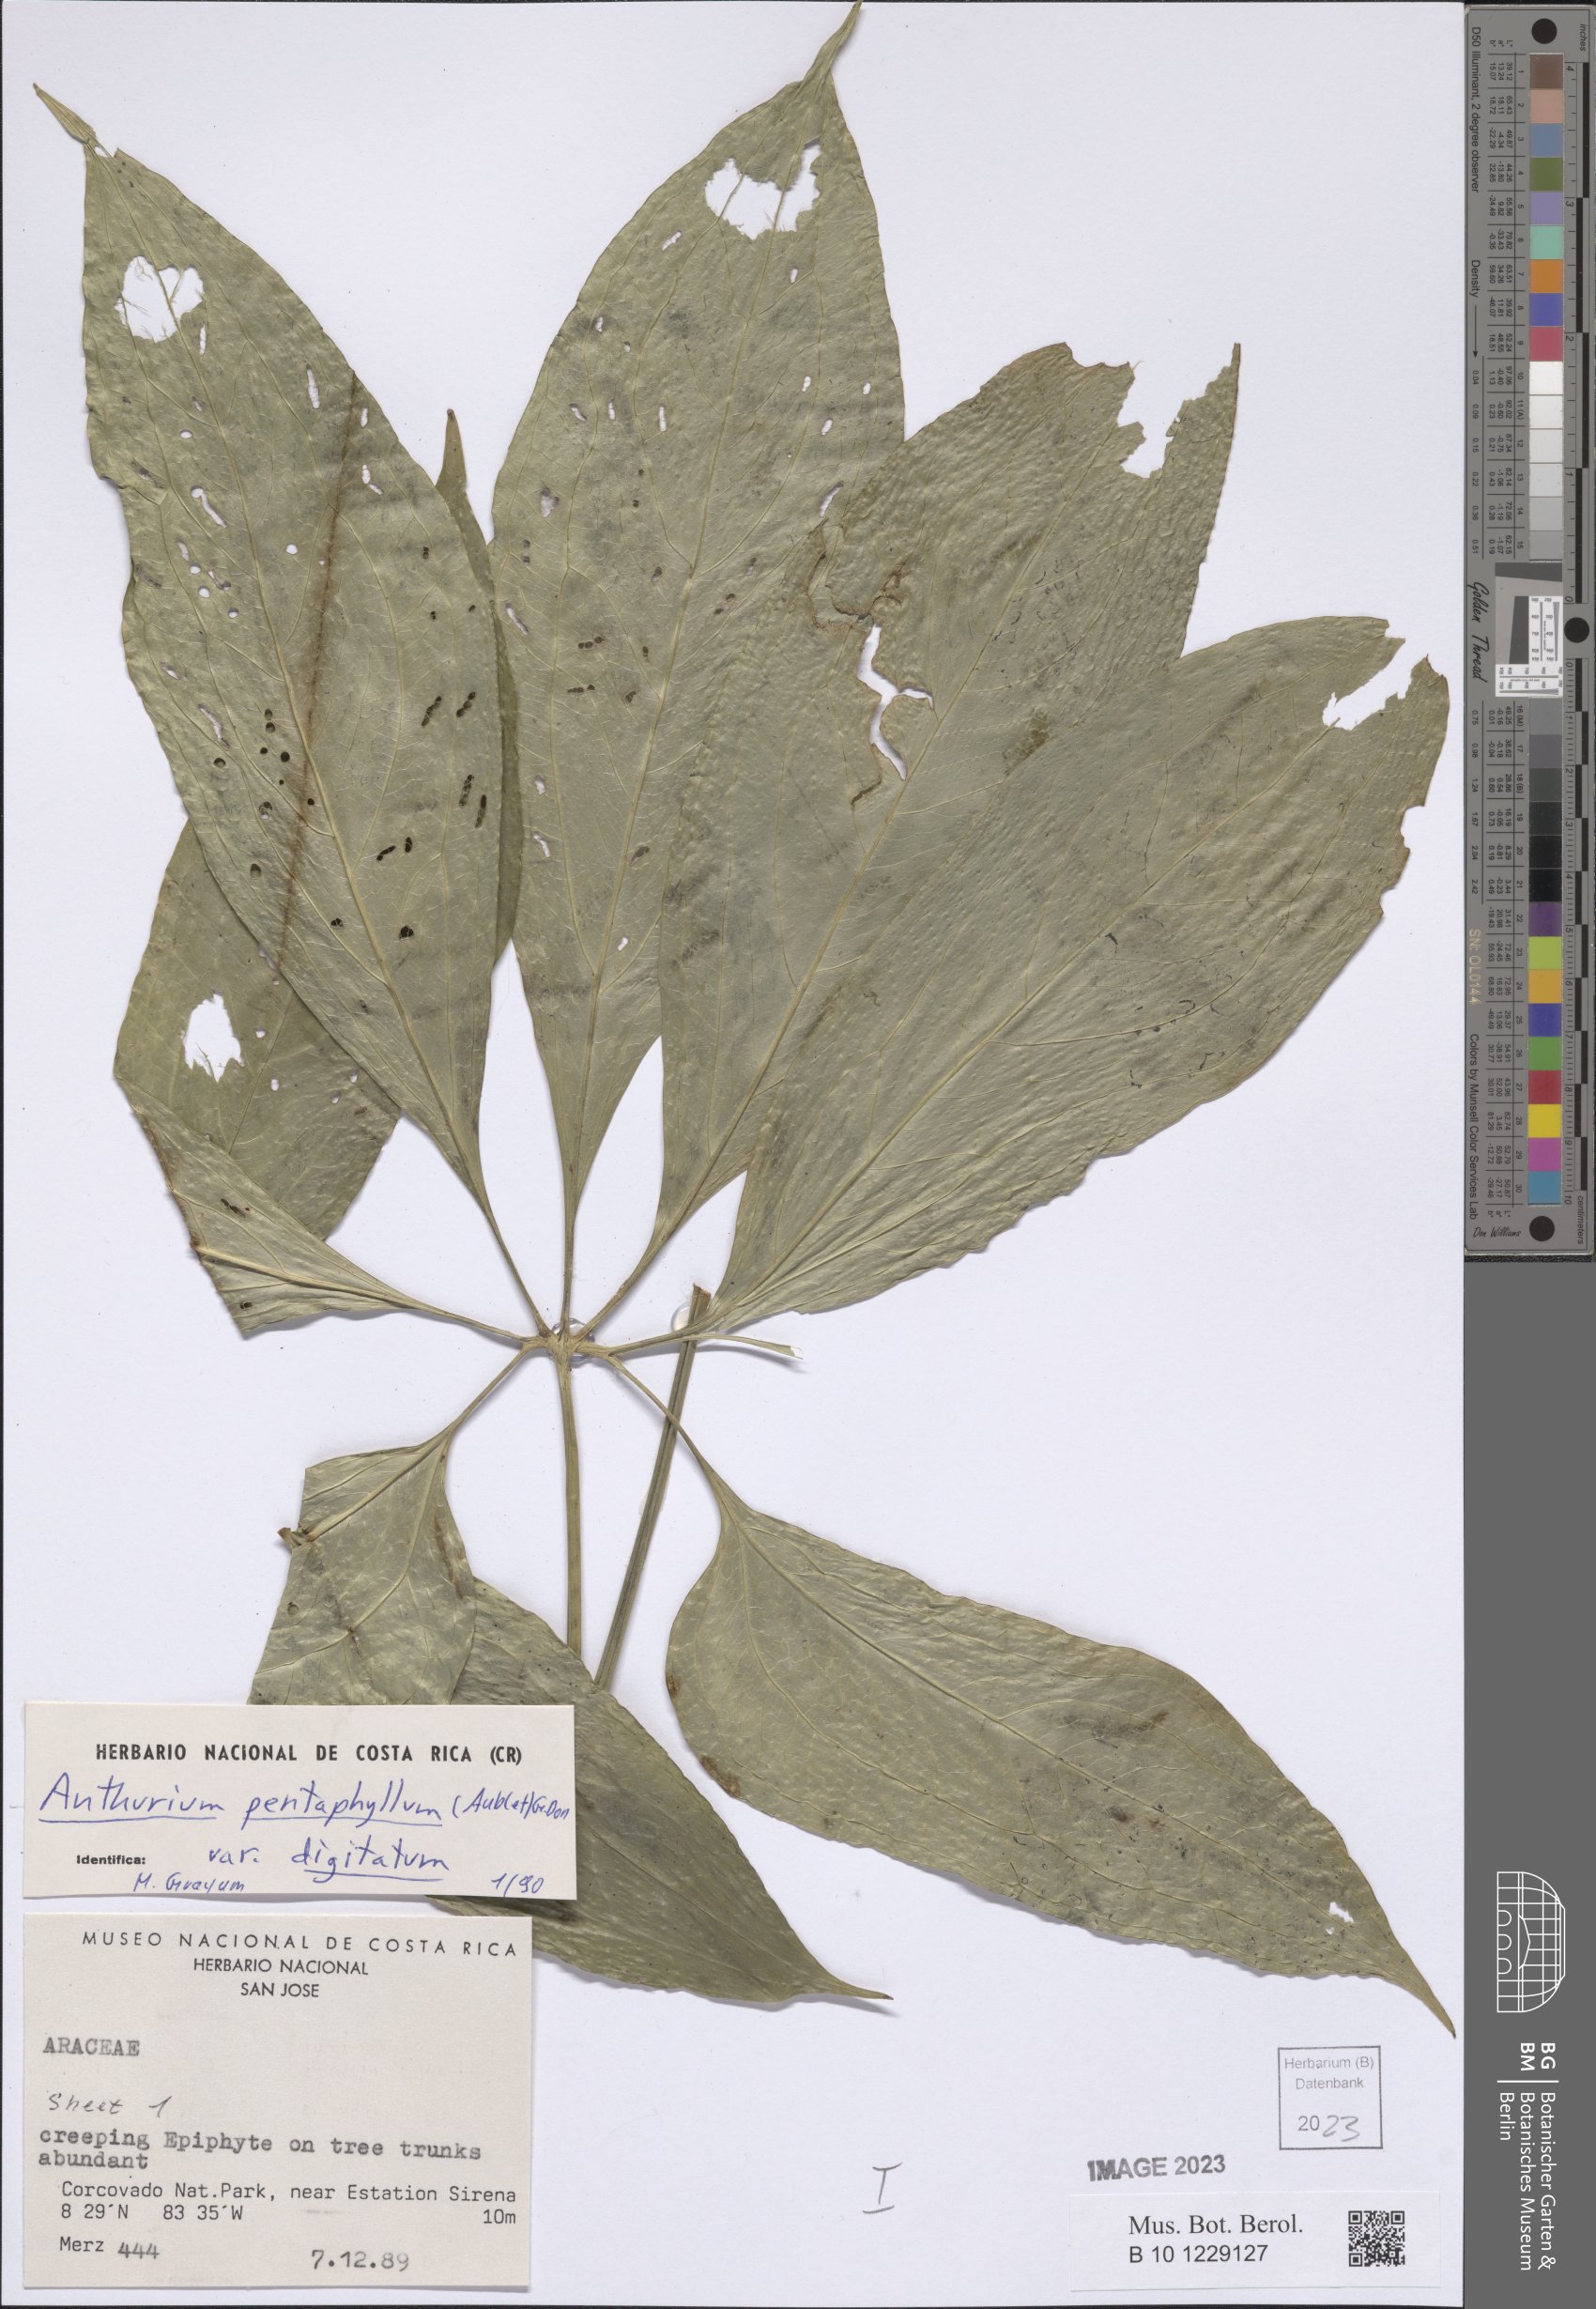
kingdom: Plantae
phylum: Tracheophyta
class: Liliopsida
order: Alismatales
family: Araceae
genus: Anthurium
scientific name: Anthurium digitatum
